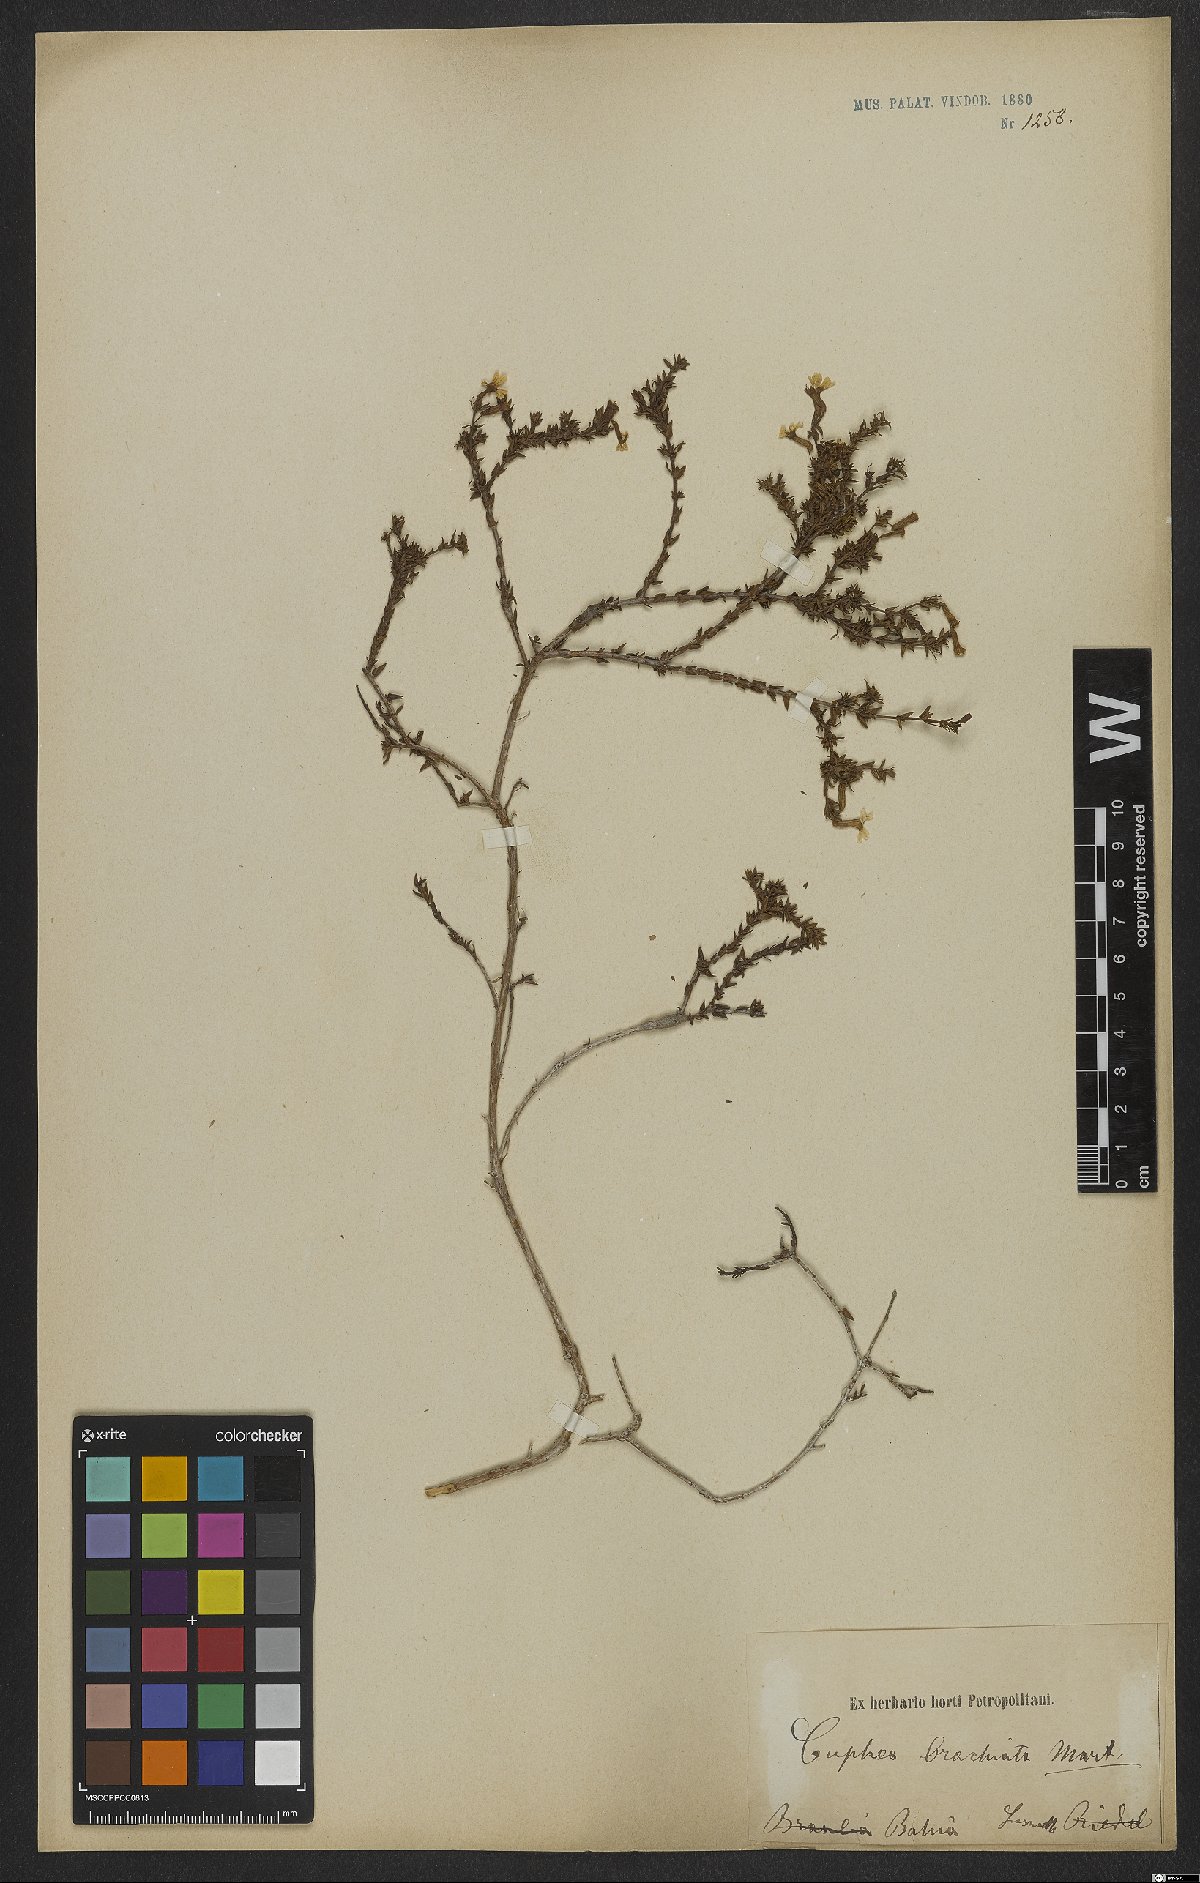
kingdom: Plantae
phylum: Tracheophyta
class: Magnoliopsida
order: Myrtales
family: Lythraceae
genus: Cuphea
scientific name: Cuphea brachiata
